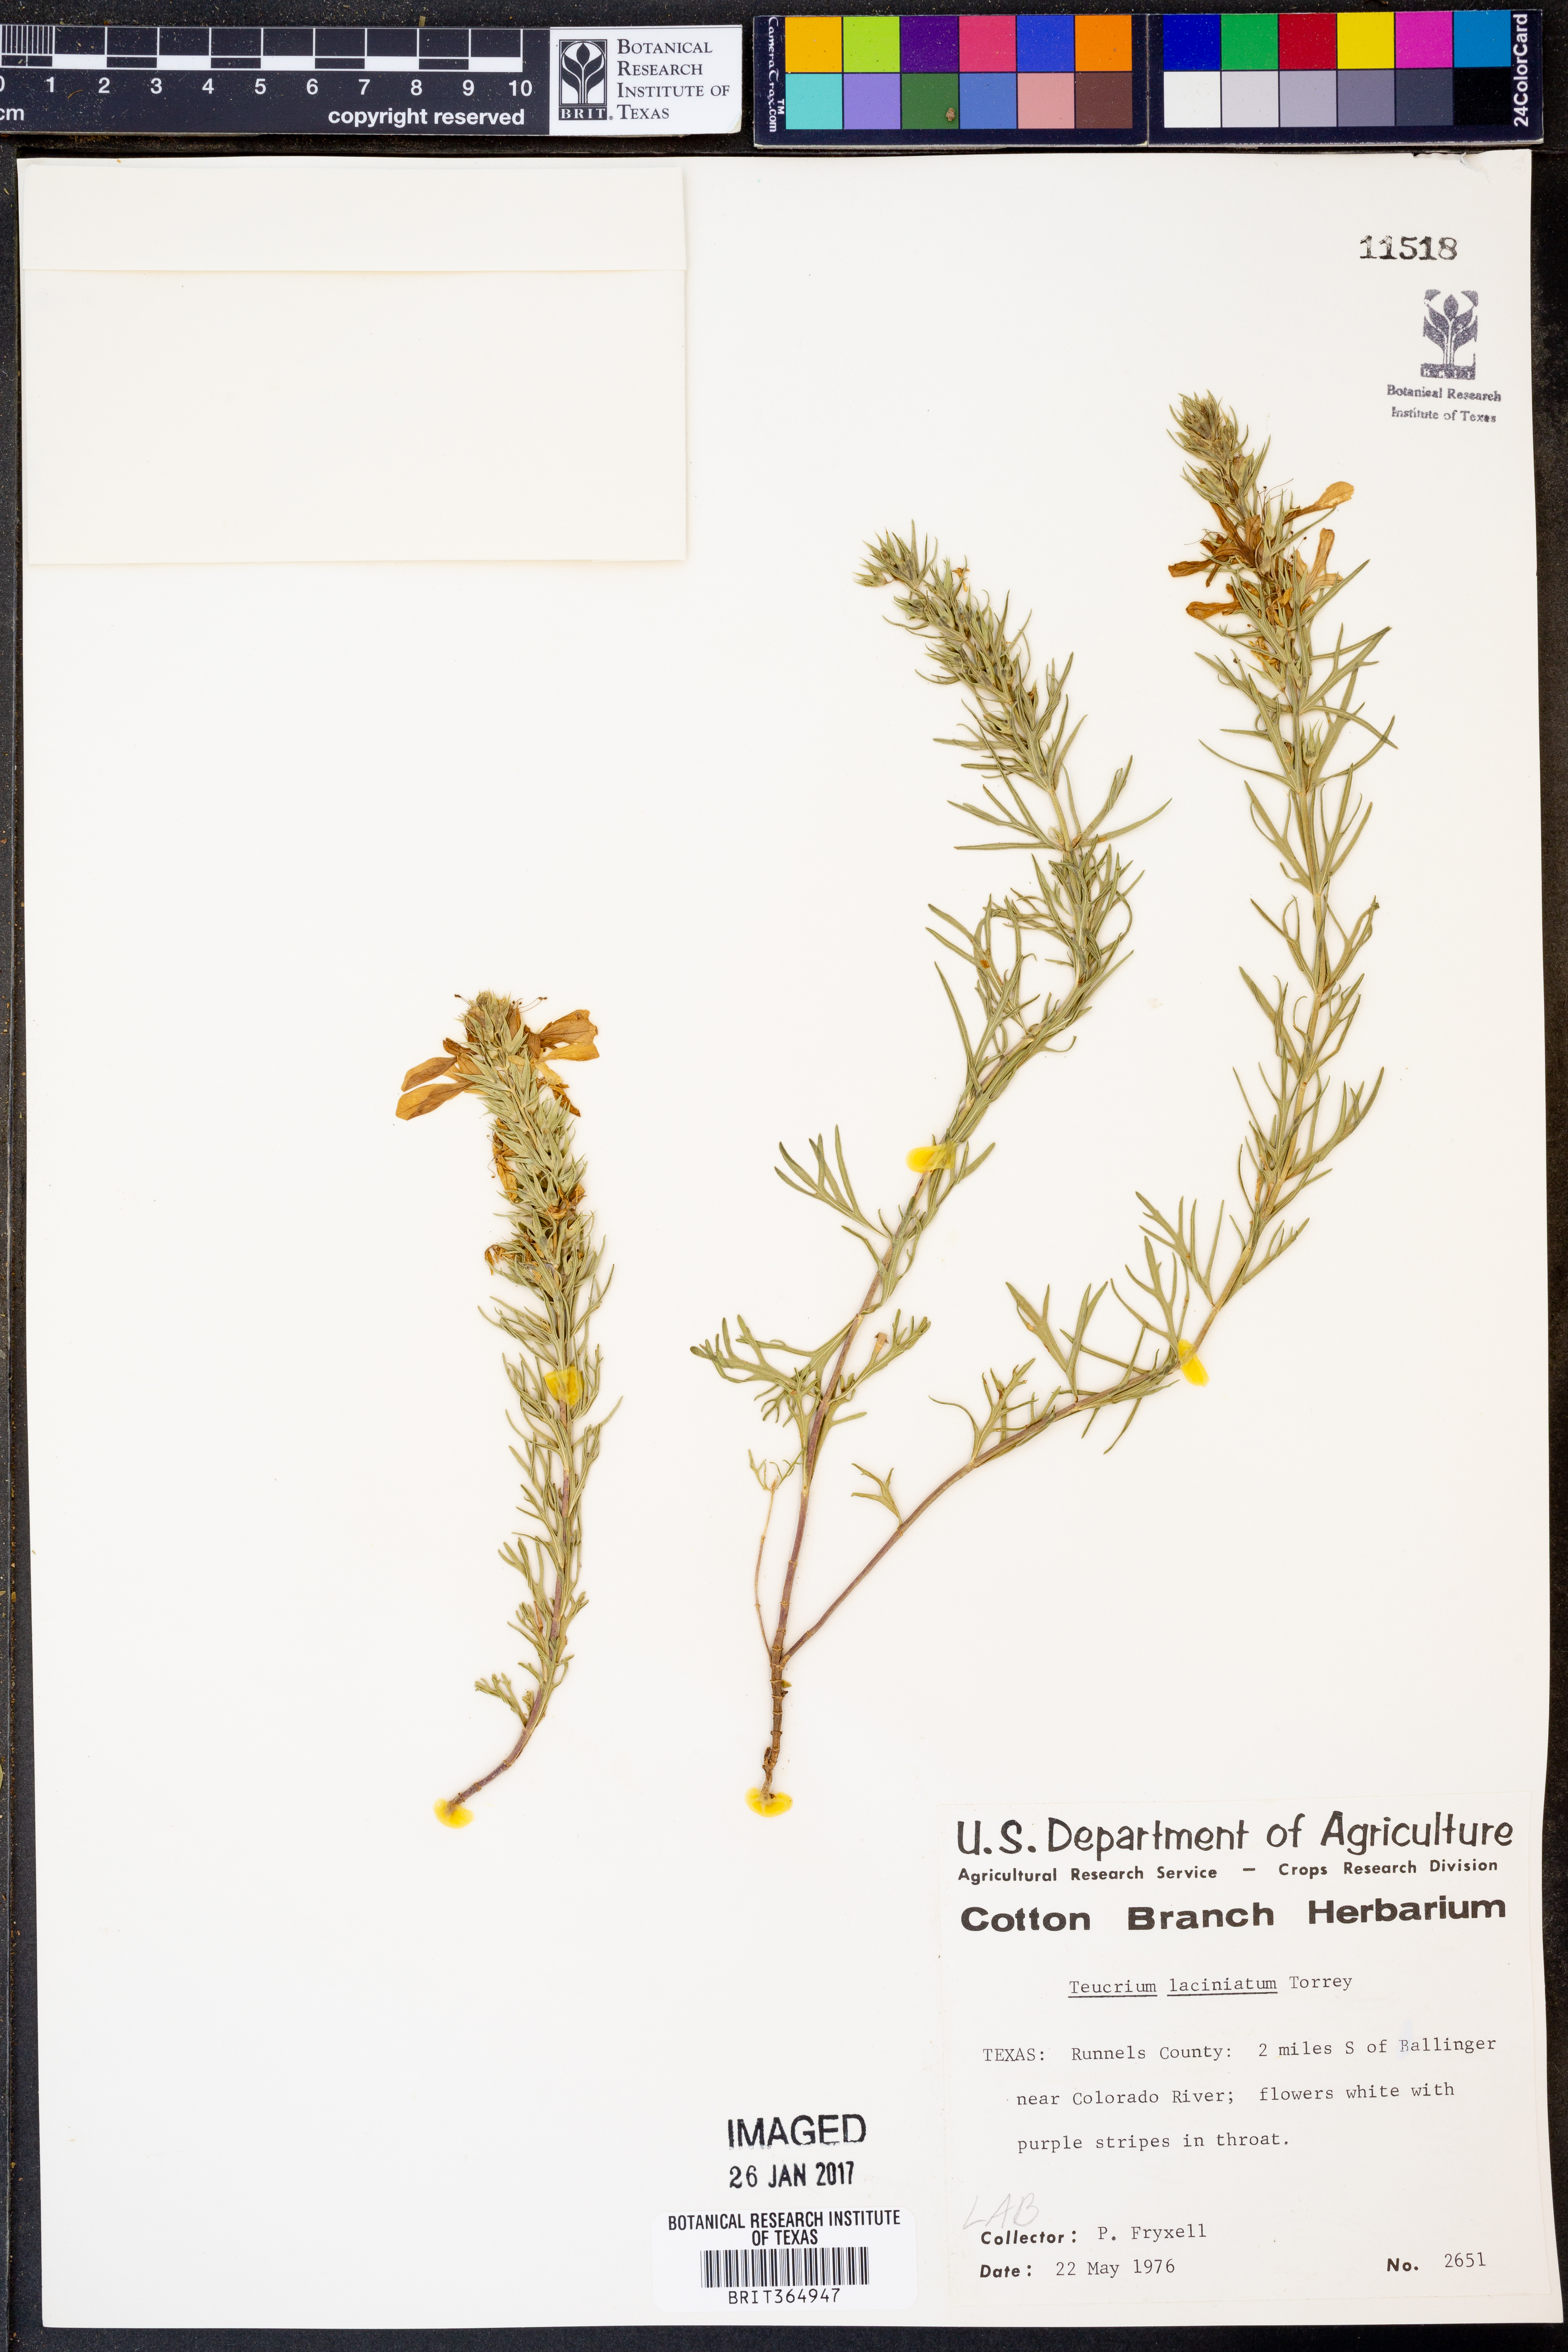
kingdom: Plantae
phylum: Tracheophyta
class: Magnoliopsida
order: Lamiales
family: Lamiaceae
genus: Teucrium
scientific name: Teucrium laciniatum
